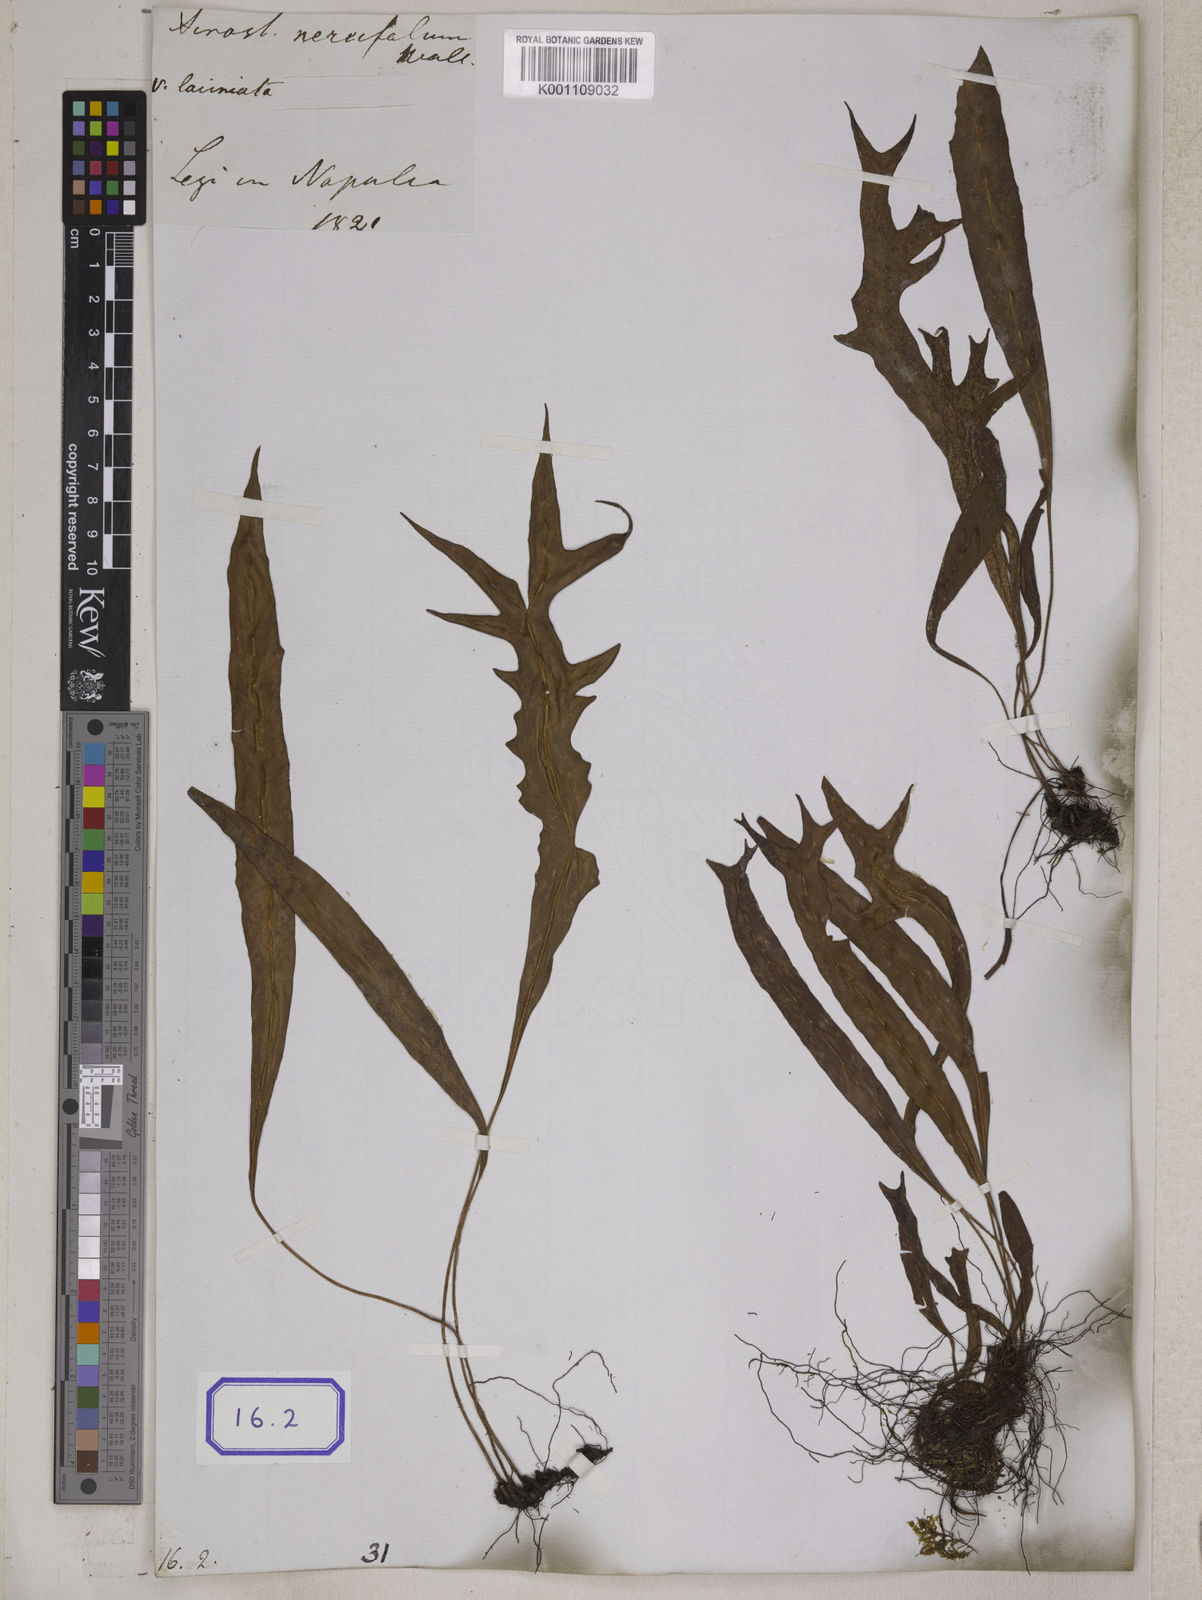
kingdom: Plantae
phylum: Tracheophyta
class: Polypodiopsida
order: Polypodiales
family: Pteridaceae
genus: Acrostichum
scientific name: Acrostichum
